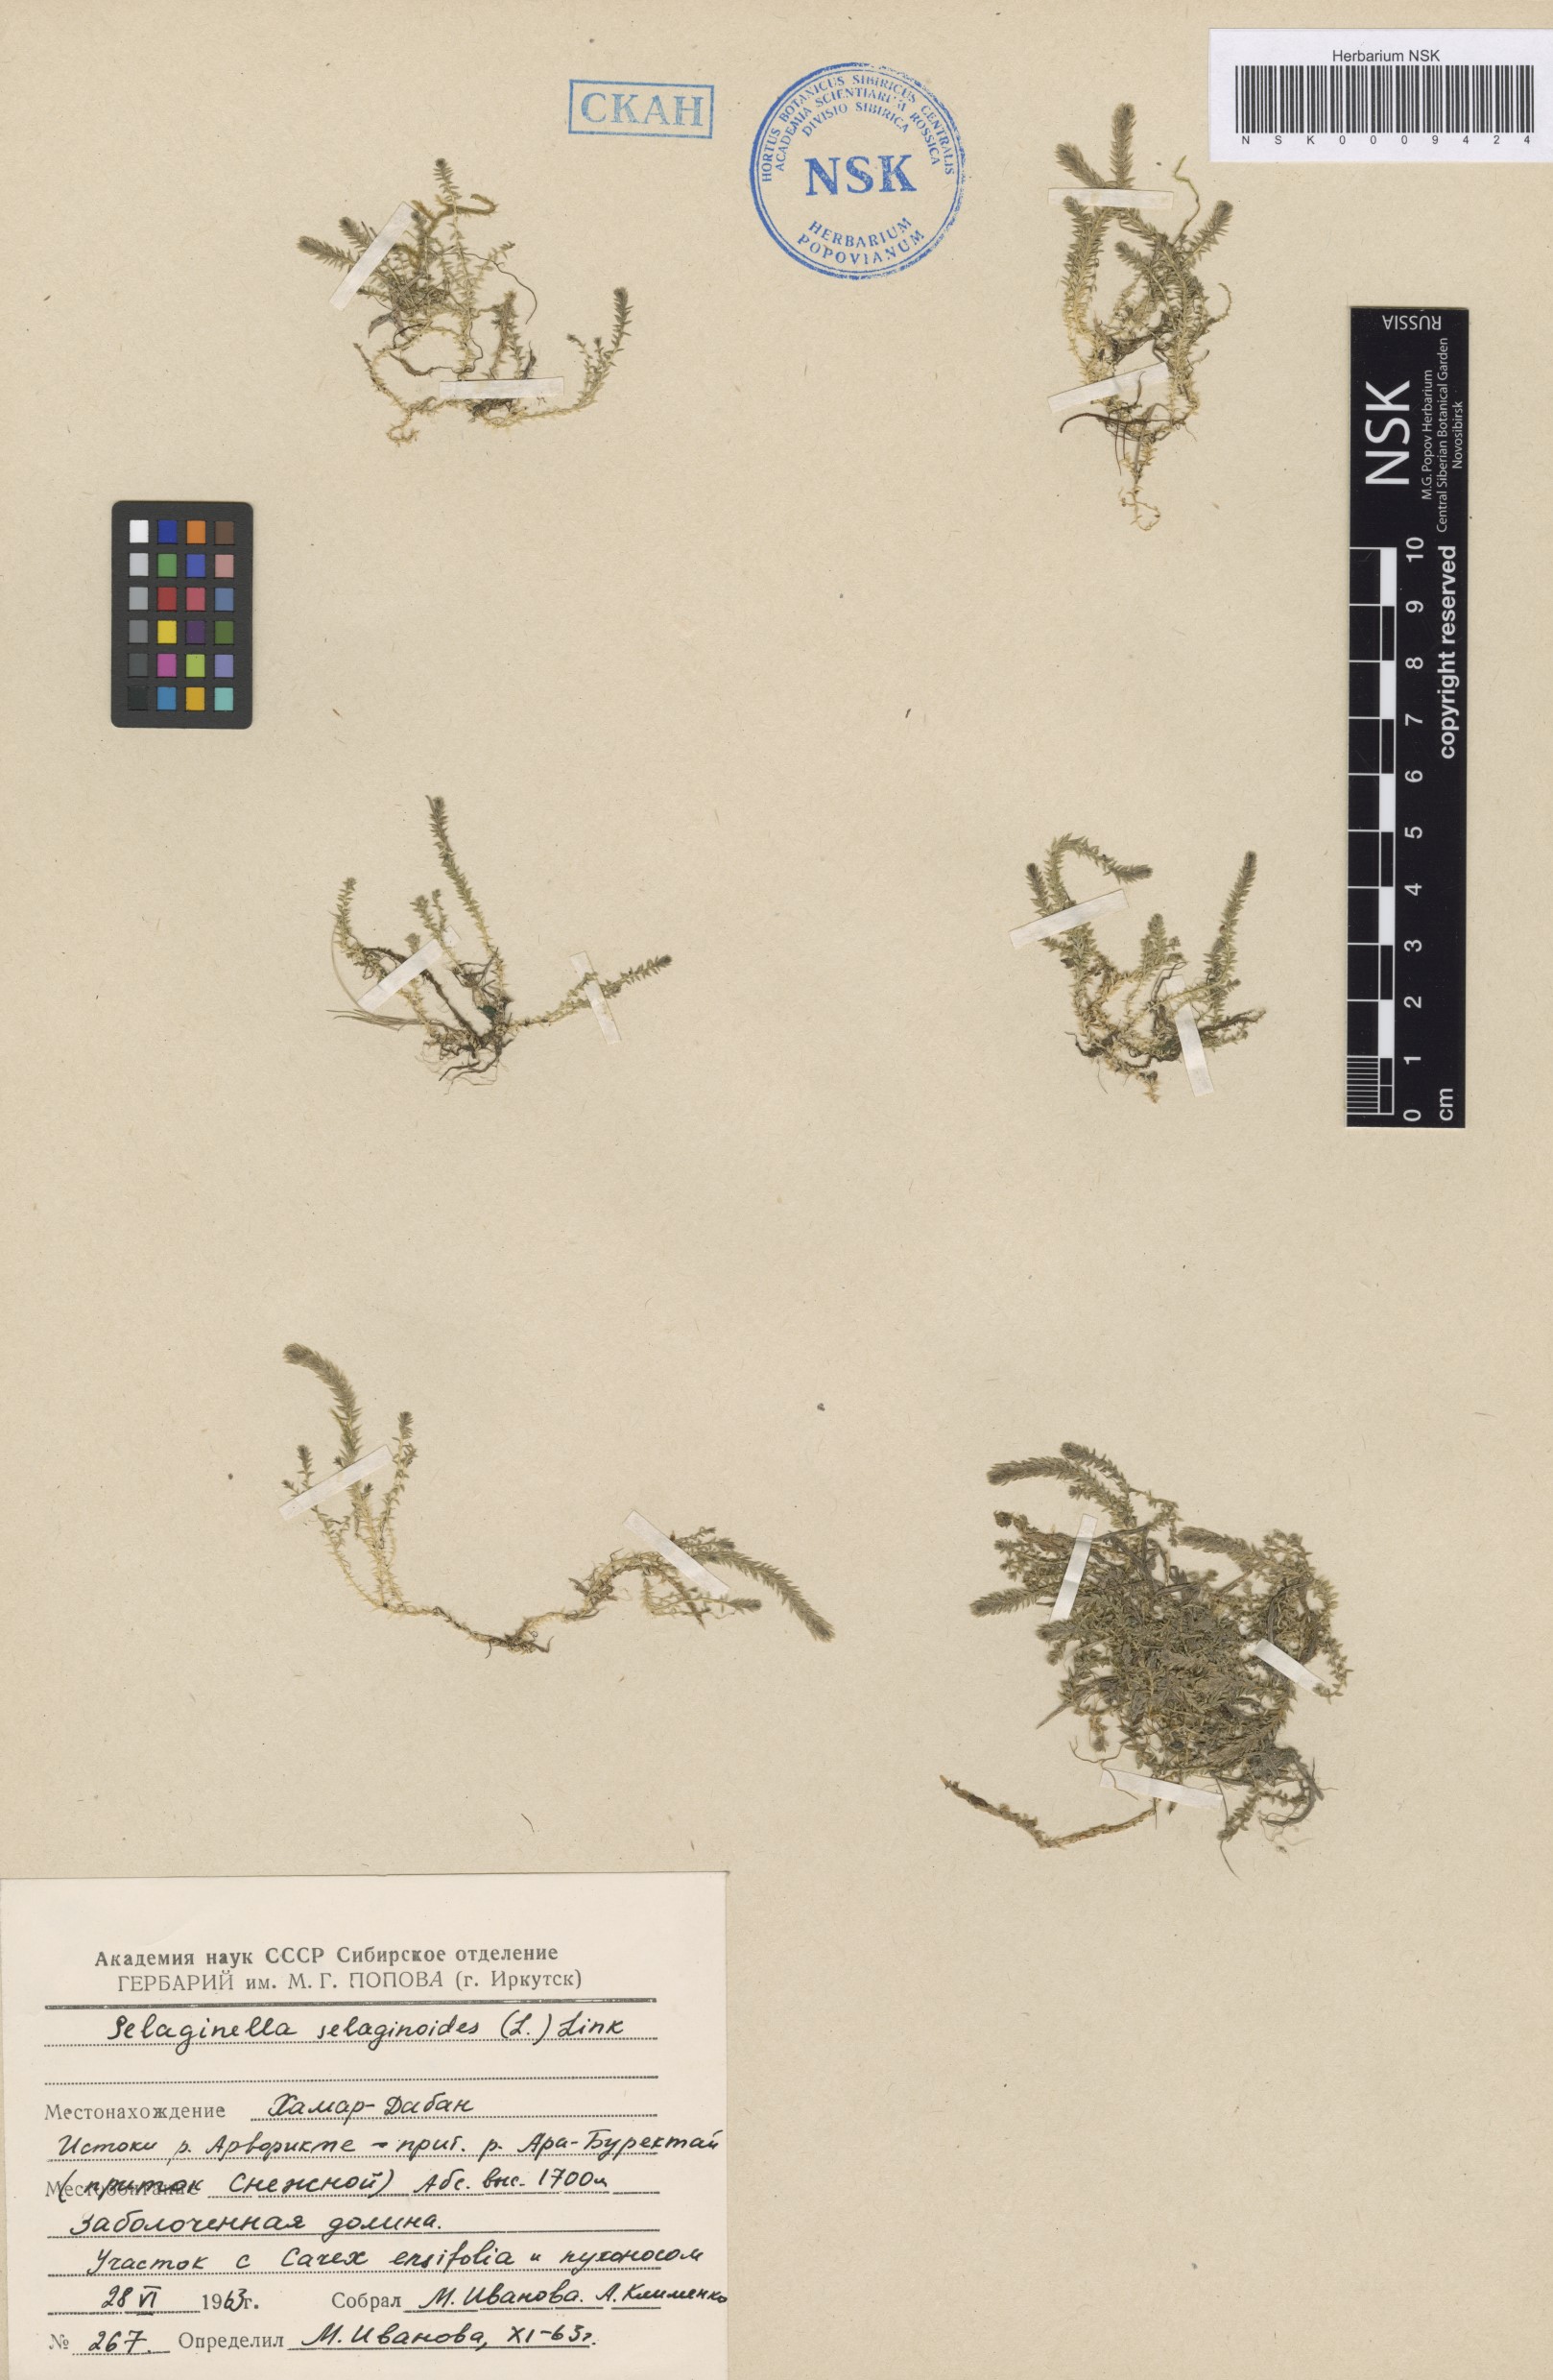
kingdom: Plantae
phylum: Tracheophyta
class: Lycopodiopsida
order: Selaginellales
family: Selaginellaceae
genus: Selaginella
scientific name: Selaginella selaginoides
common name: Prickly mountain-moss
